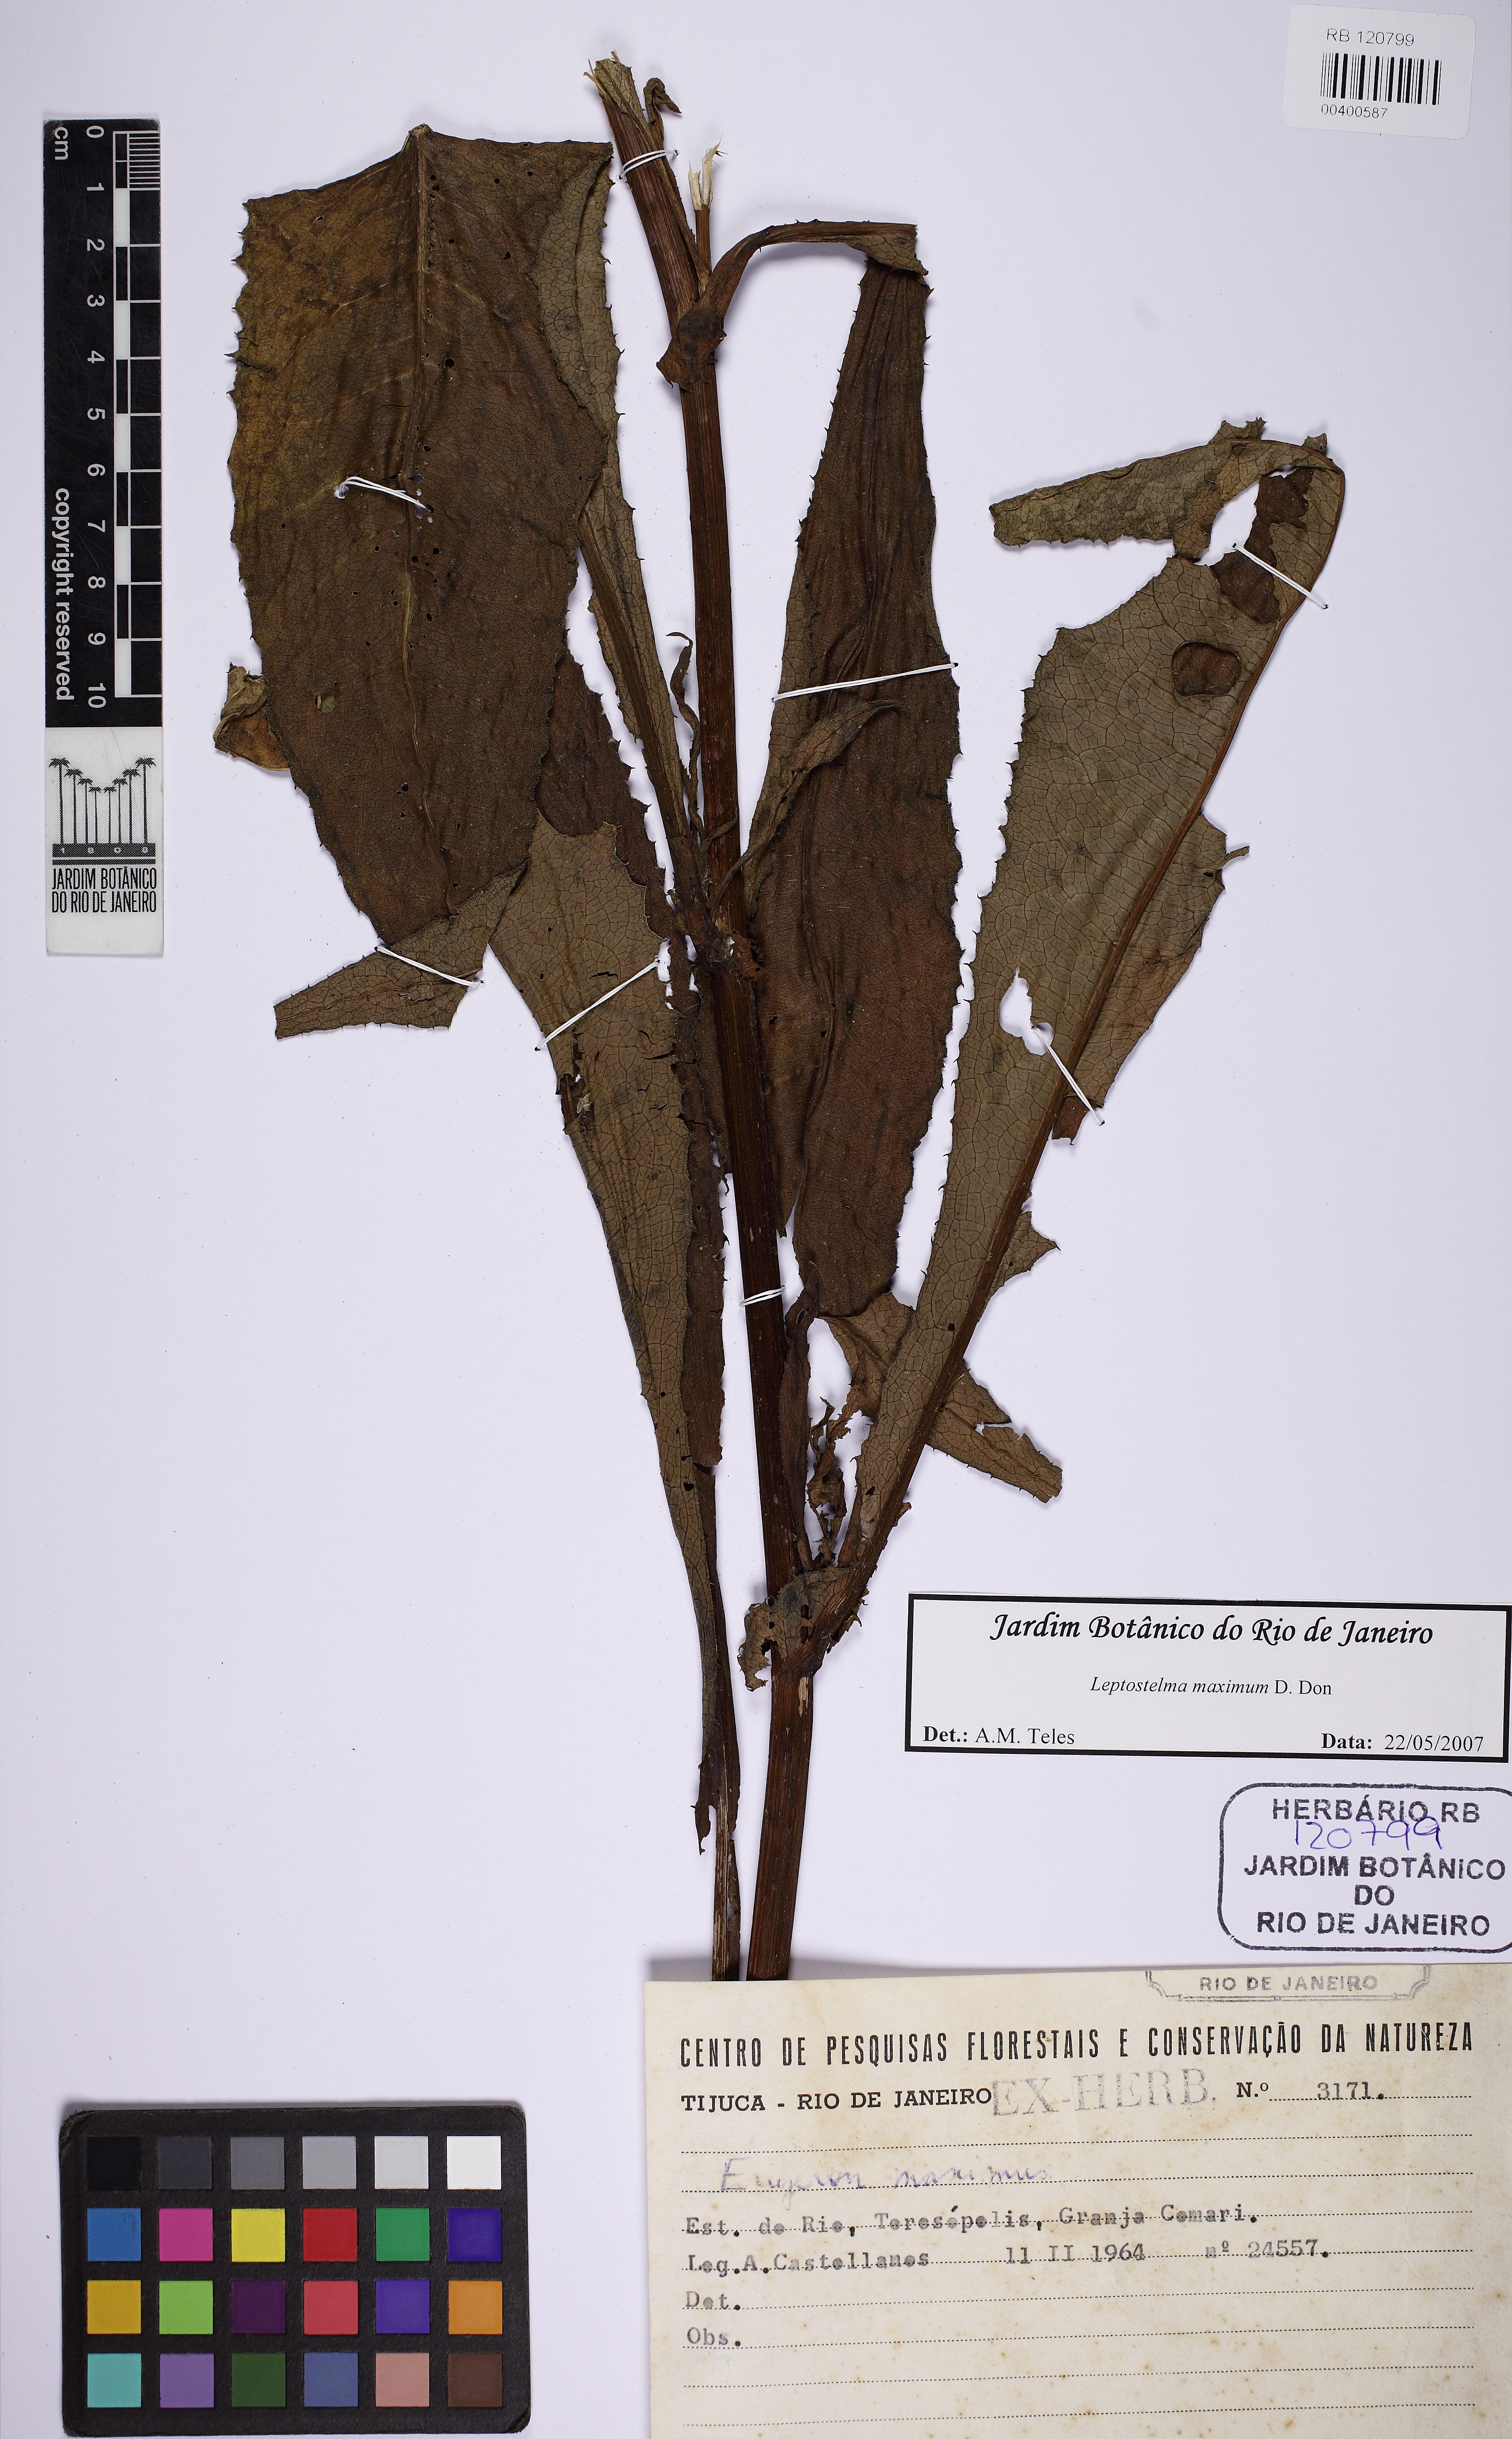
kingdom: Plantae
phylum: Tracheophyta
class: Magnoliopsida
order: Asterales
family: Asteraceae
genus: Leptostelma
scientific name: Leptostelma maxima
